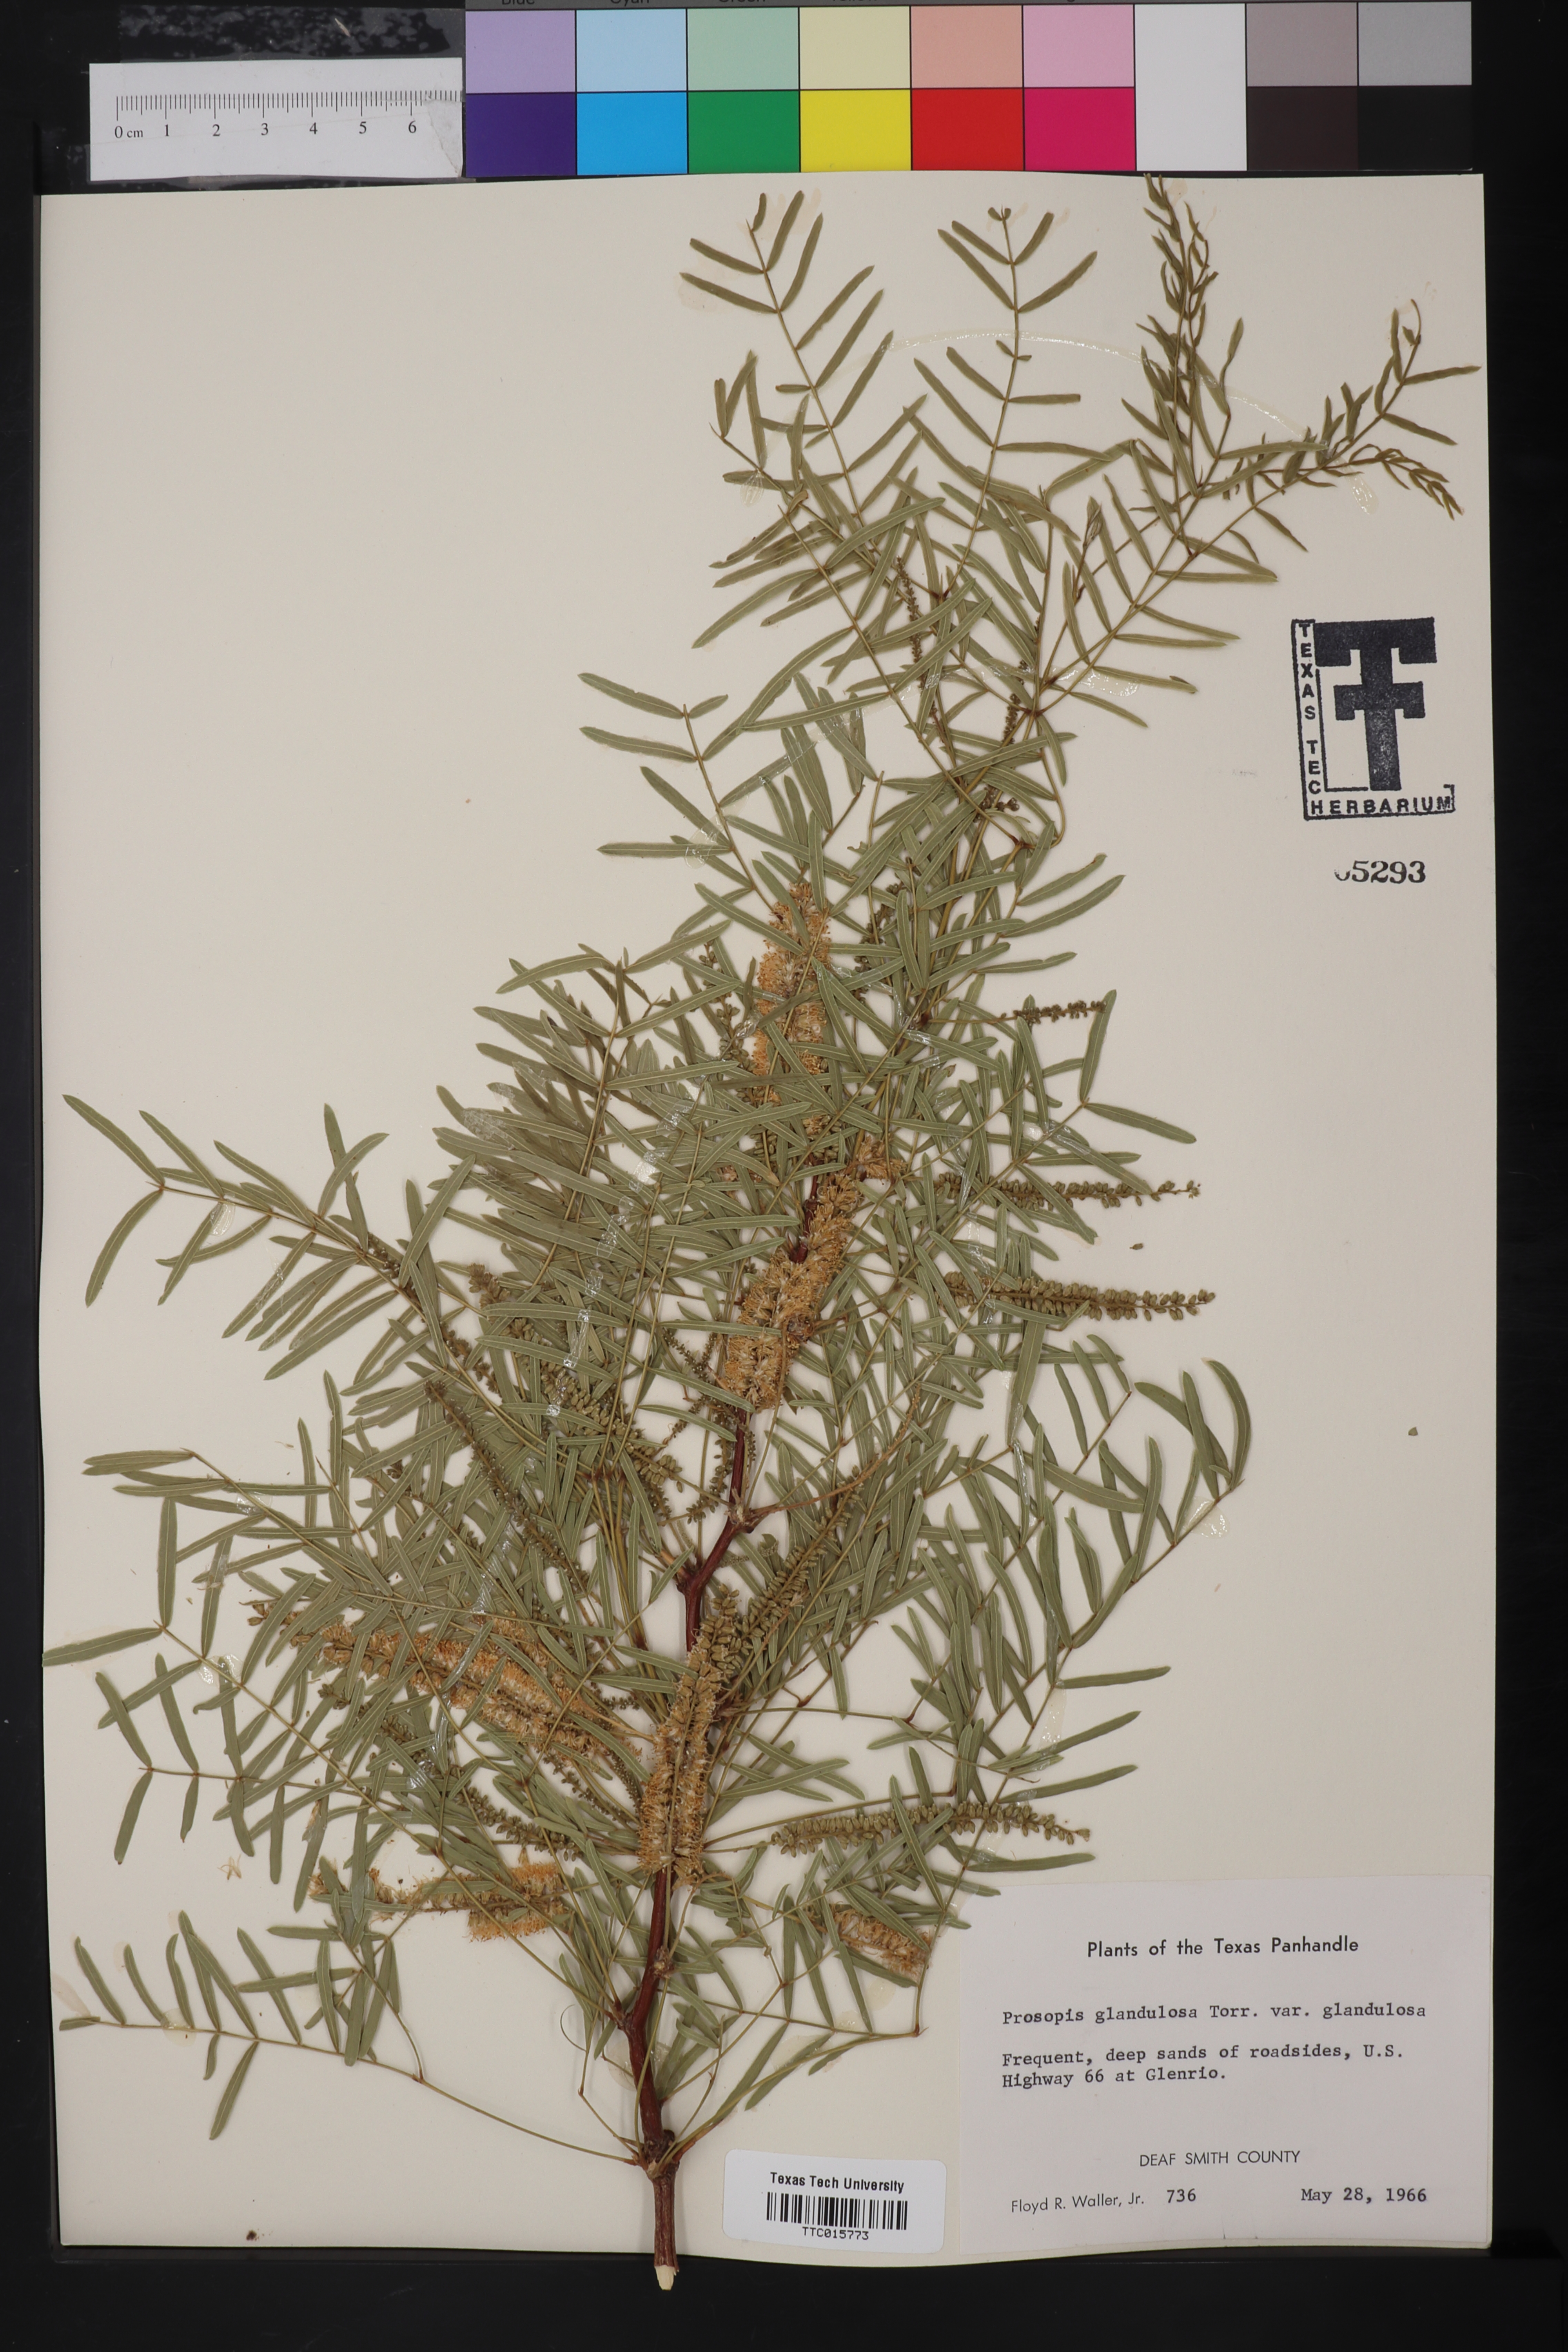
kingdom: Plantae
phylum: Tracheophyta
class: Magnoliopsida
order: Fabales
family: Fabaceae
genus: Prosopis
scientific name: Prosopis glandulosa
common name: Honey mesquite
